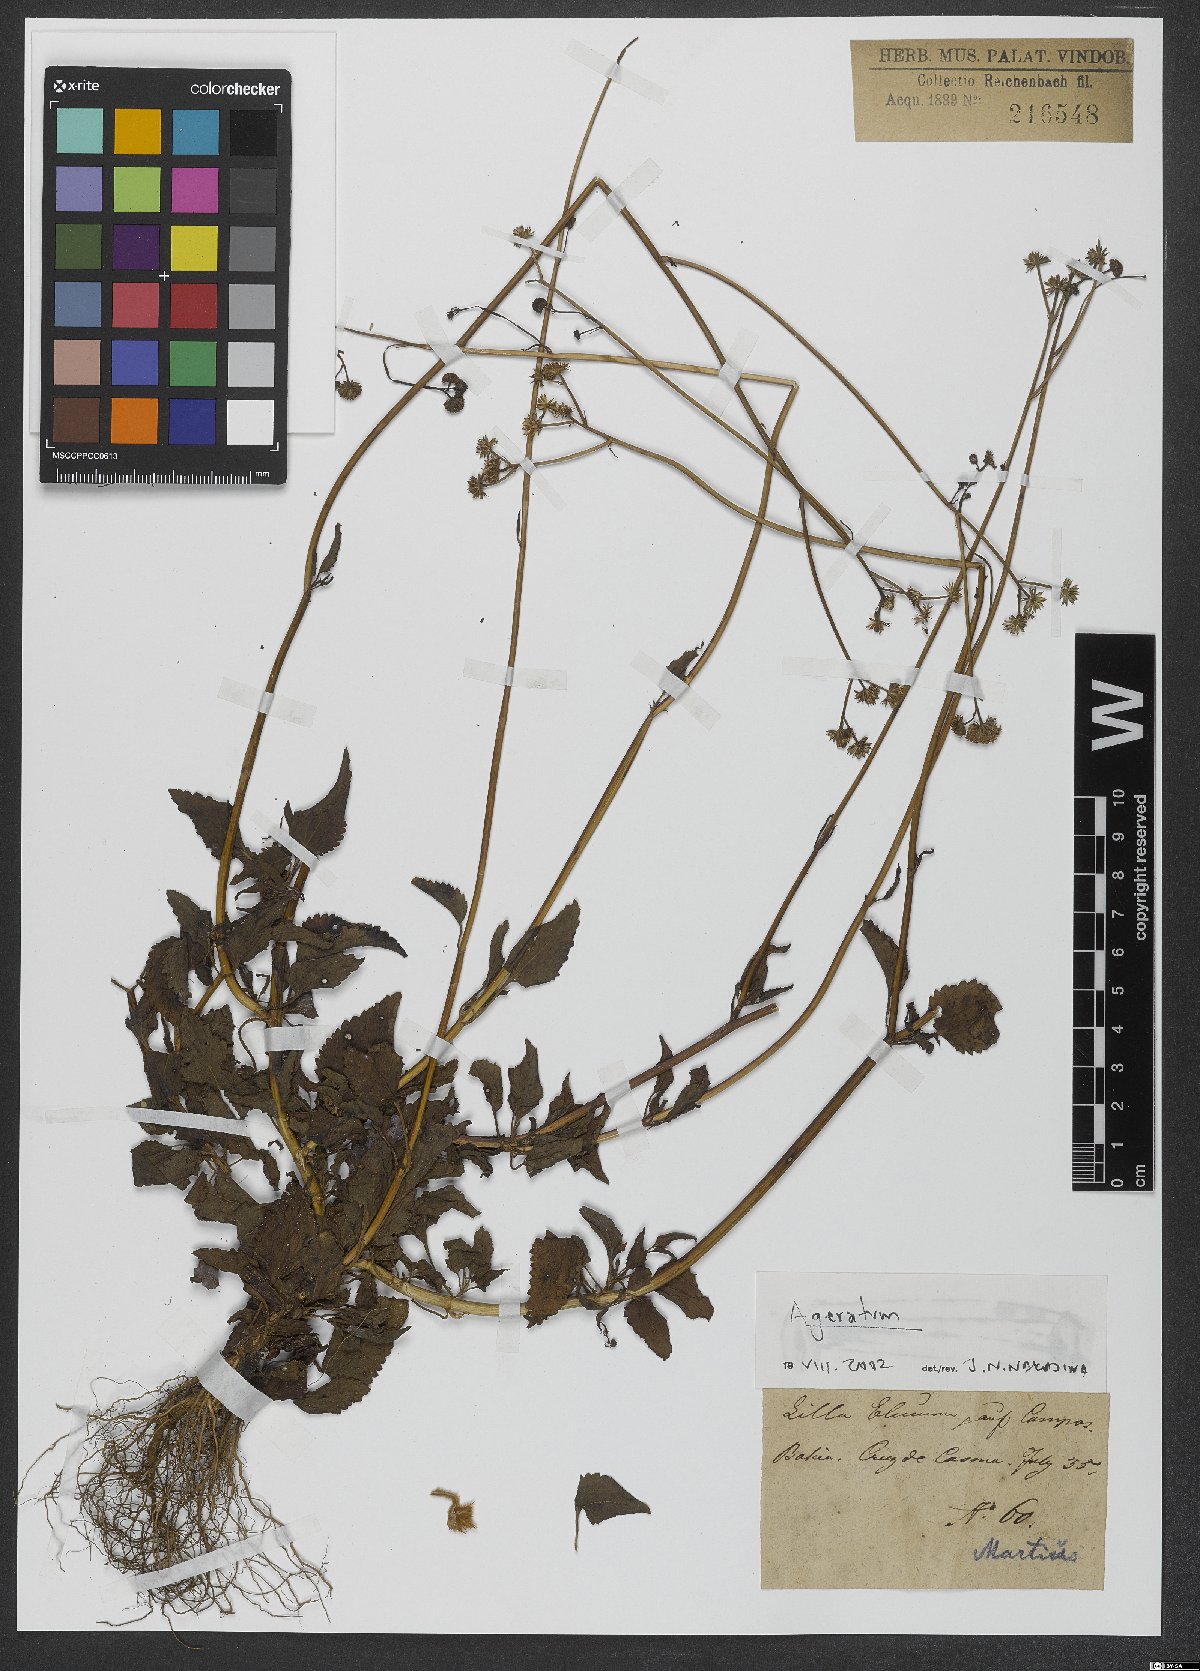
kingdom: Plantae
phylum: Tracheophyta
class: Magnoliopsida
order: Asterales
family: Asteraceae
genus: Ageratum
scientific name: Ageratum
